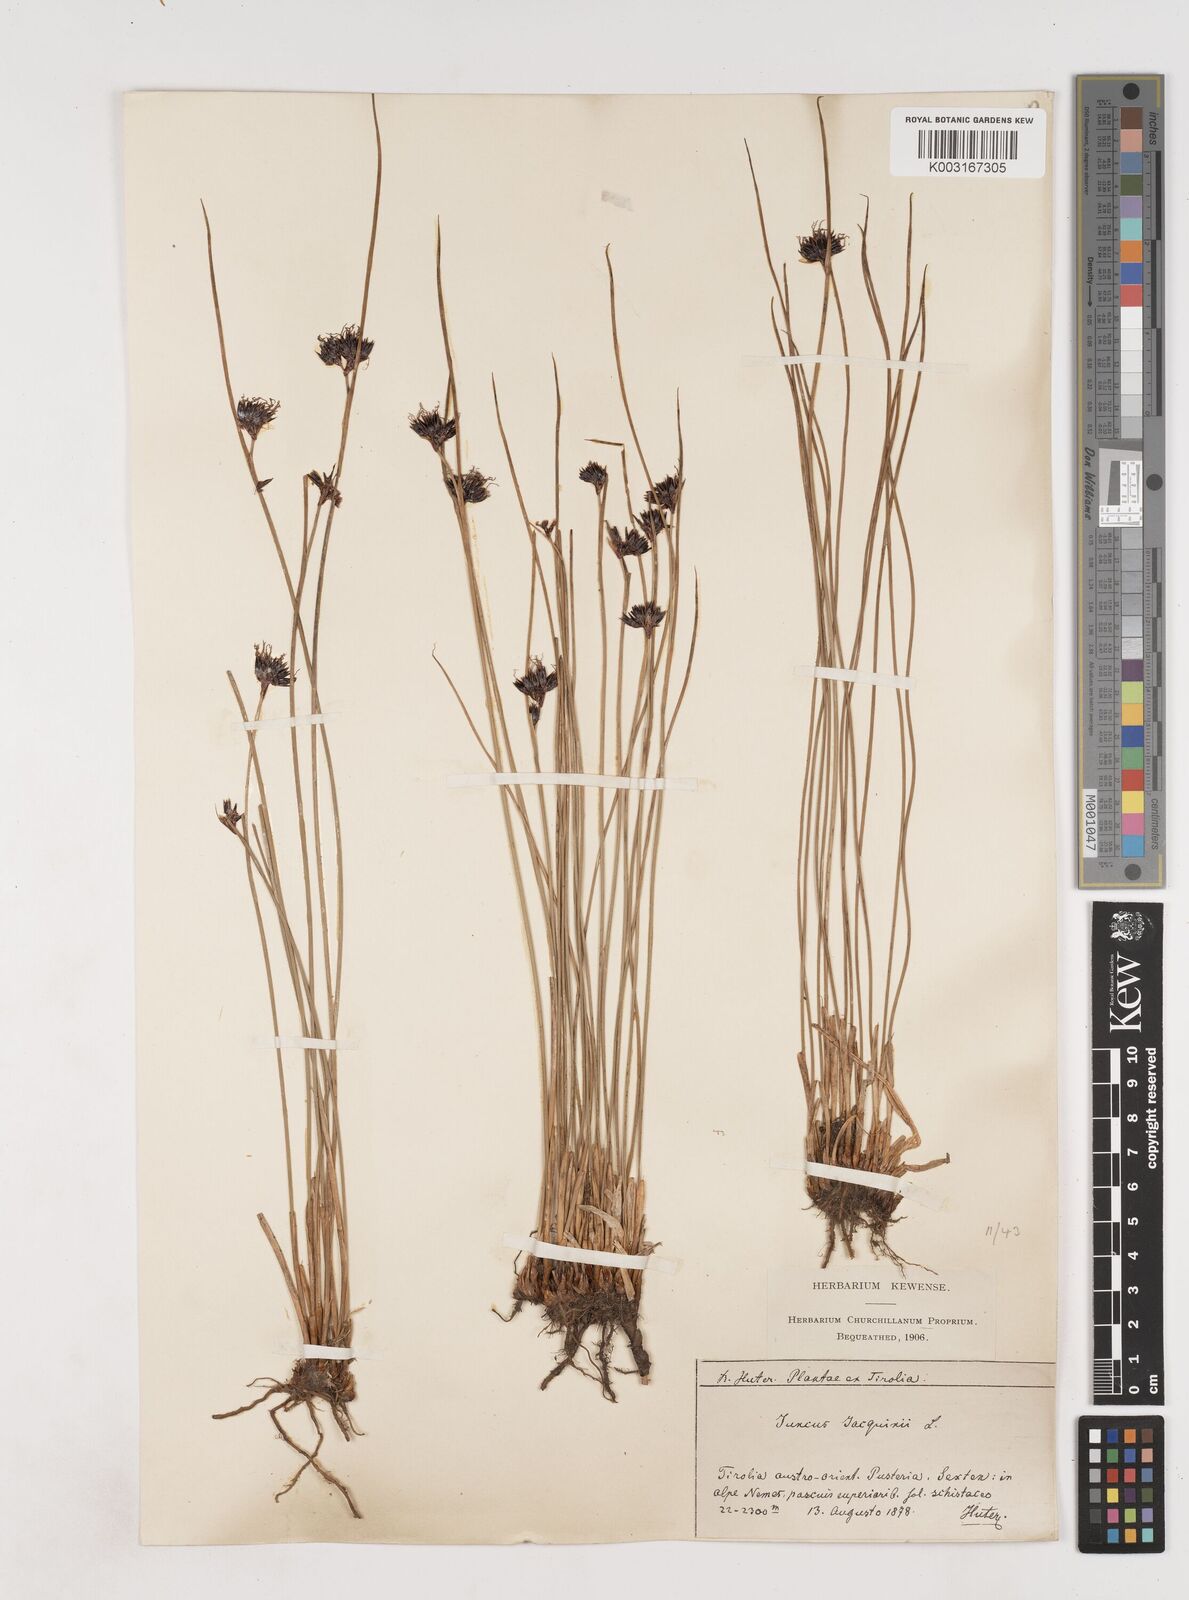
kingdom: Plantae
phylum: Tracheophyta
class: Liliopsida
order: Poales
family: Juncaceae
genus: Juncus
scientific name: Juncus jacquinii
